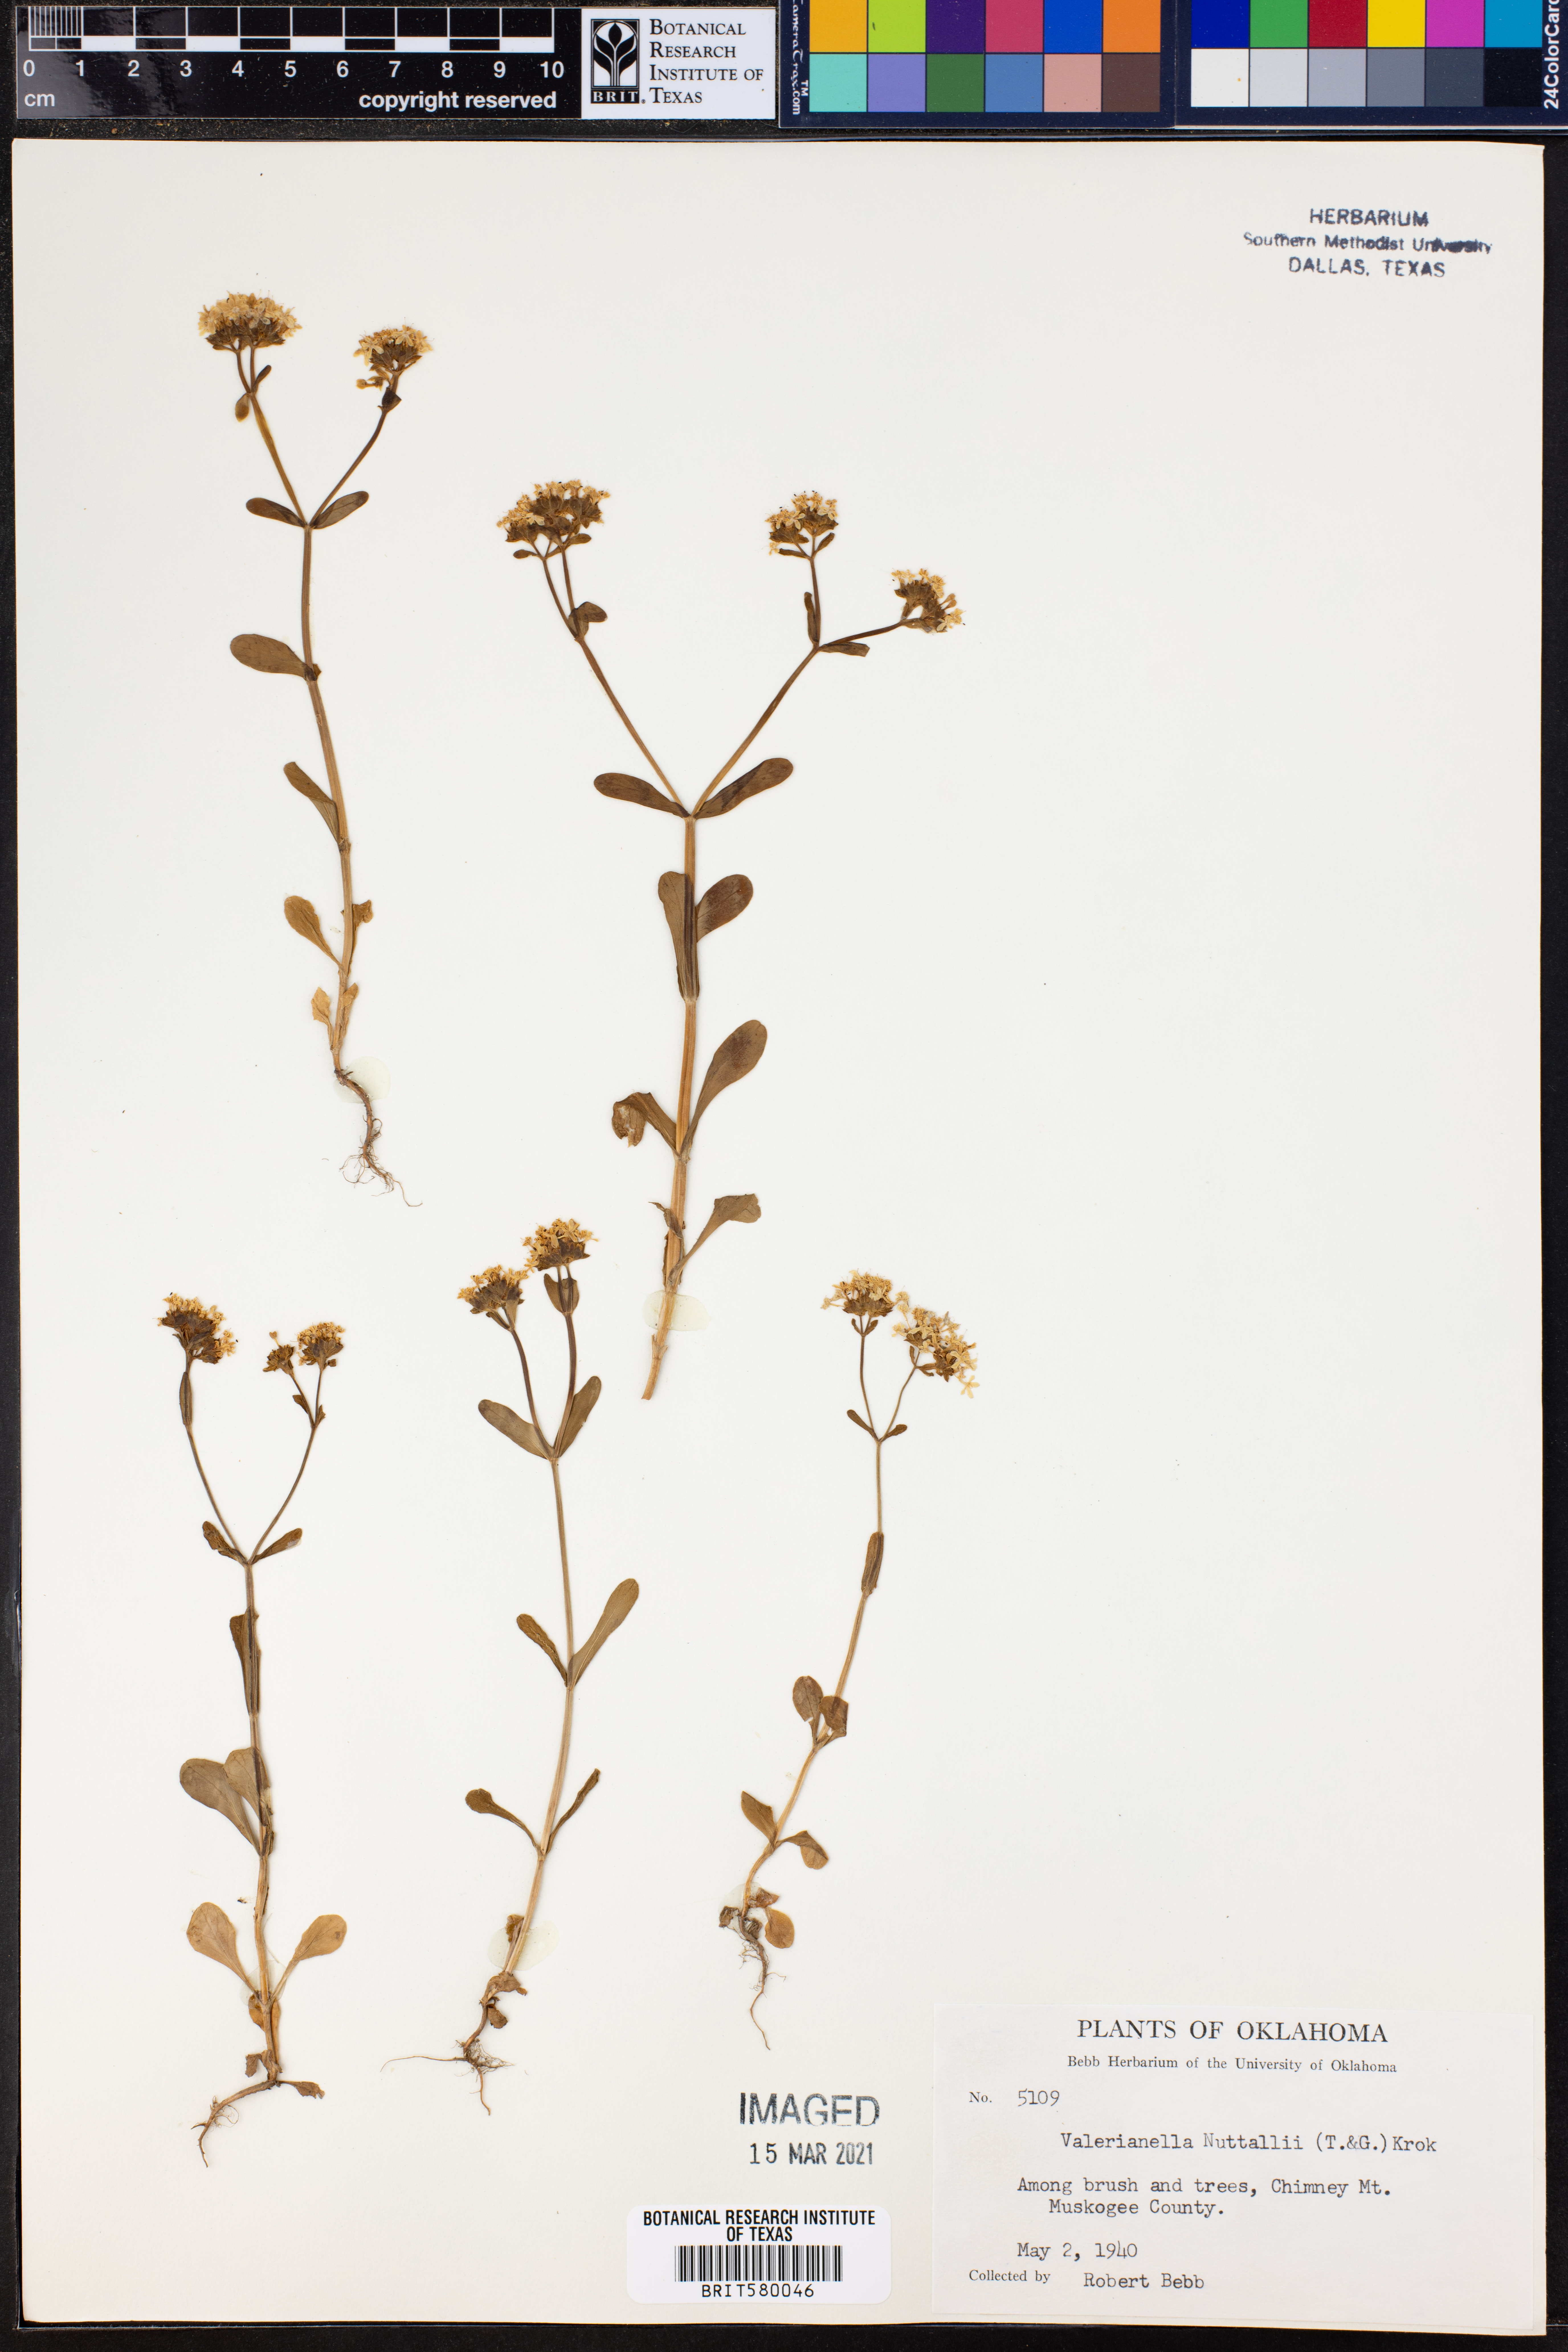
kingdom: Plantae
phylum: Tracheophyta
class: Magnoliopsida
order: Dipsacales
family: Caprifoliaceae
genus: Valerianella
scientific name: Valerianella nuttallii
